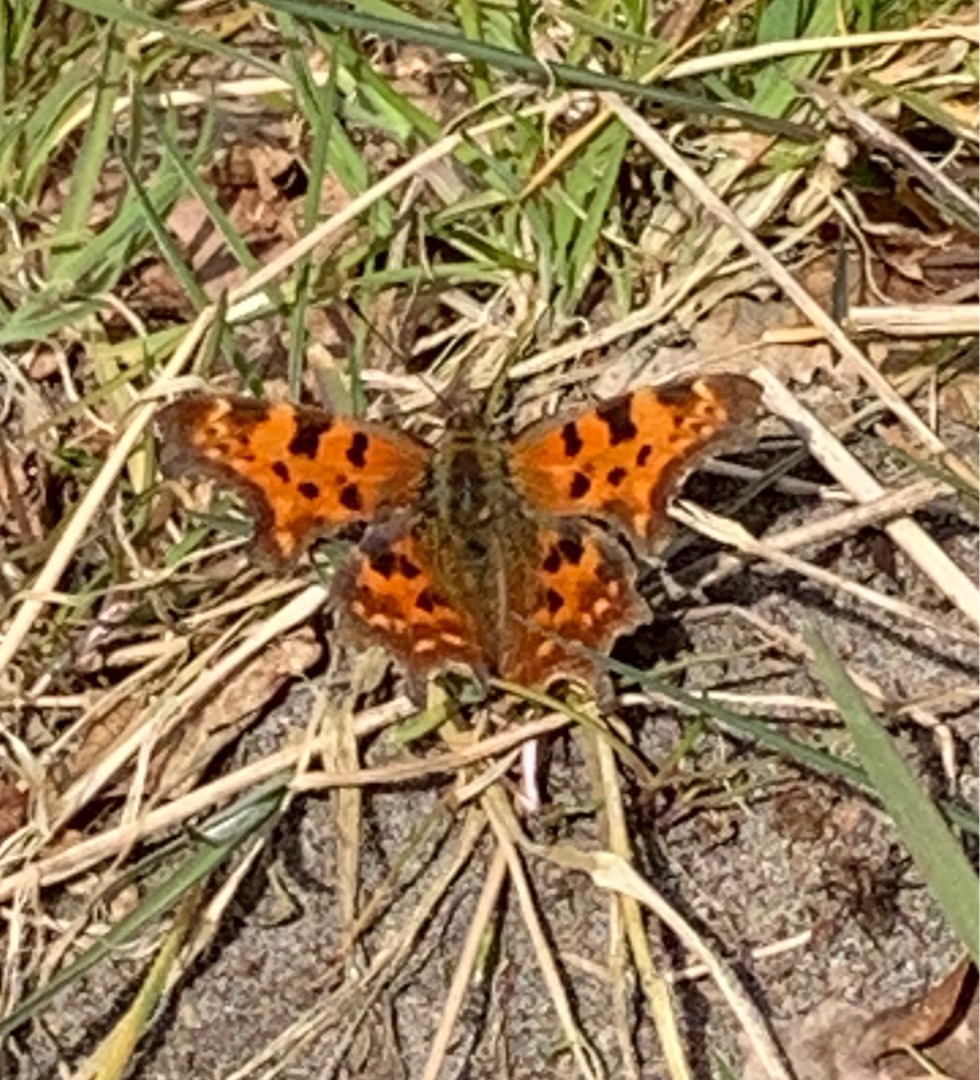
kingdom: Animalia
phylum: Arthropoda
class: Insecta
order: Lepidoptera
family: Nymphalidae
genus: Polygonia
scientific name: Polygonia c-album
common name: Det hvide C
